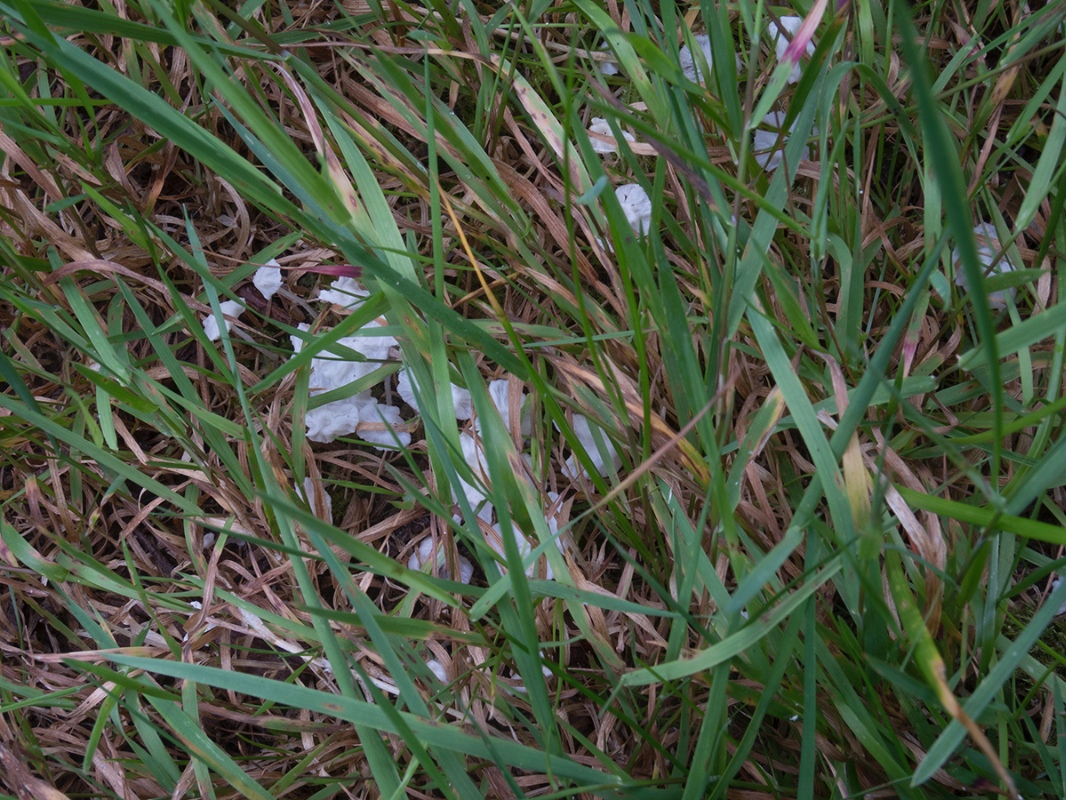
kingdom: Fungi
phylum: Basidiomycota
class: Agaricomycetes
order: Agaricales
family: Tricholomataceae
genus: Delicatula
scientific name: Delicatula integrella
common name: slørhuesvamp
